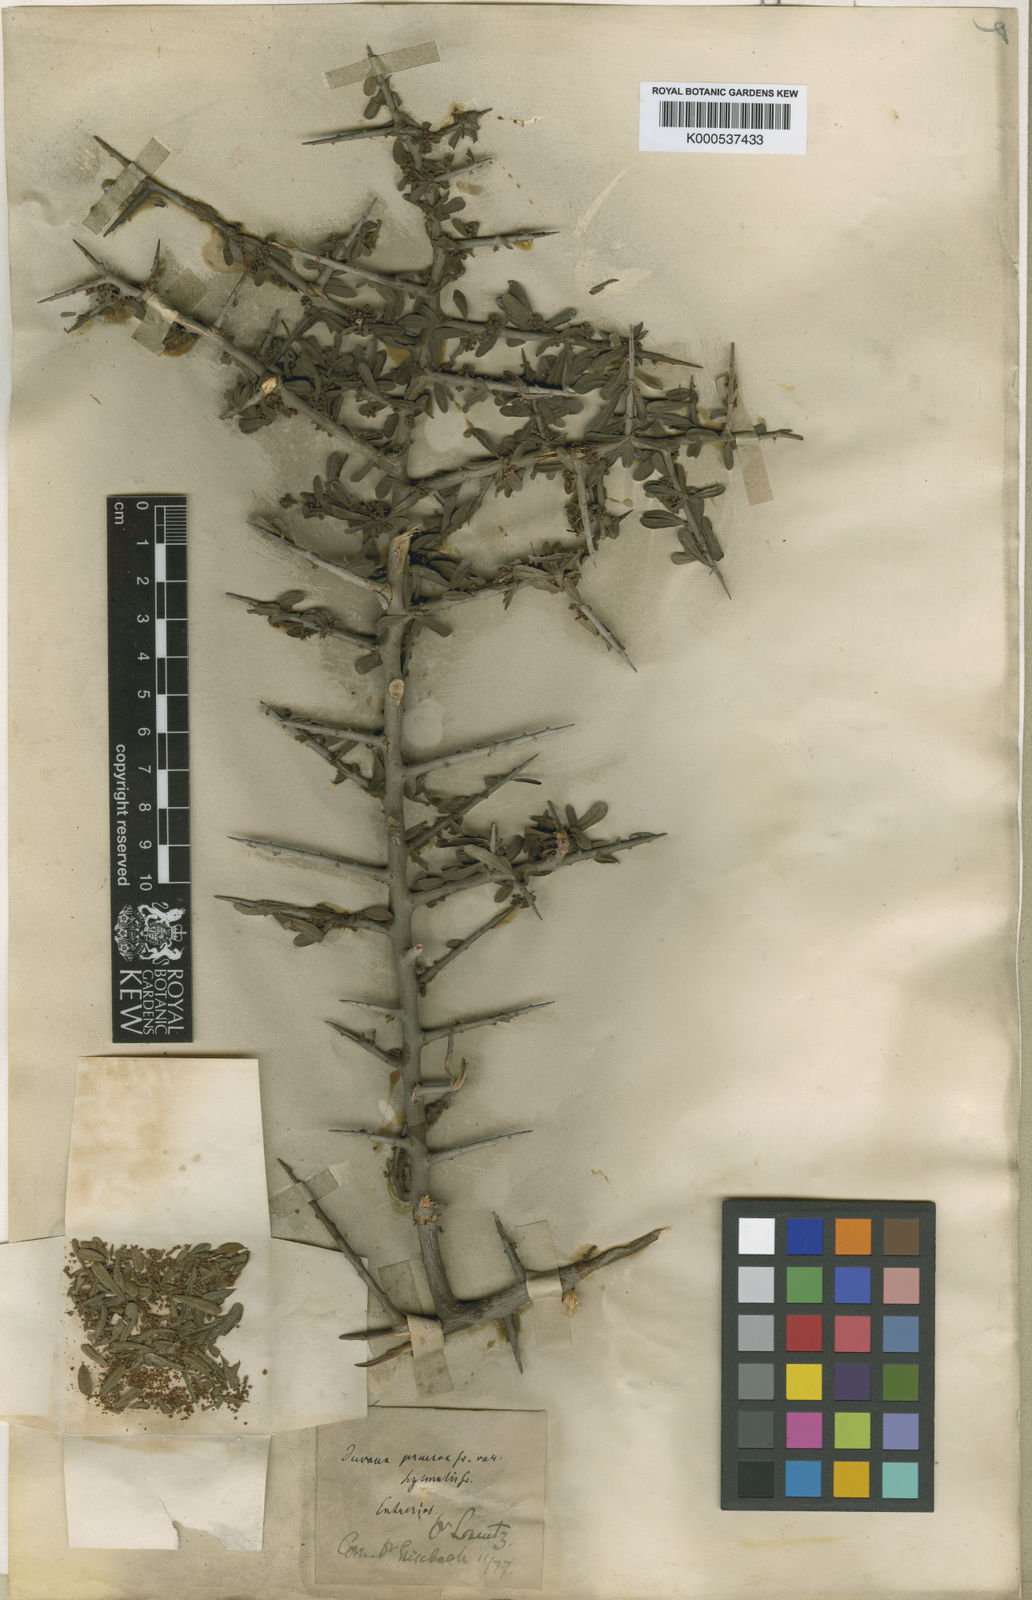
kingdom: Plantae
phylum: Tracheophyta
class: Magnoliopsida
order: Sapindales
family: Anacardiaceae
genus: Schinus
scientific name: Schinus polygama
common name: Hardee peppertree
